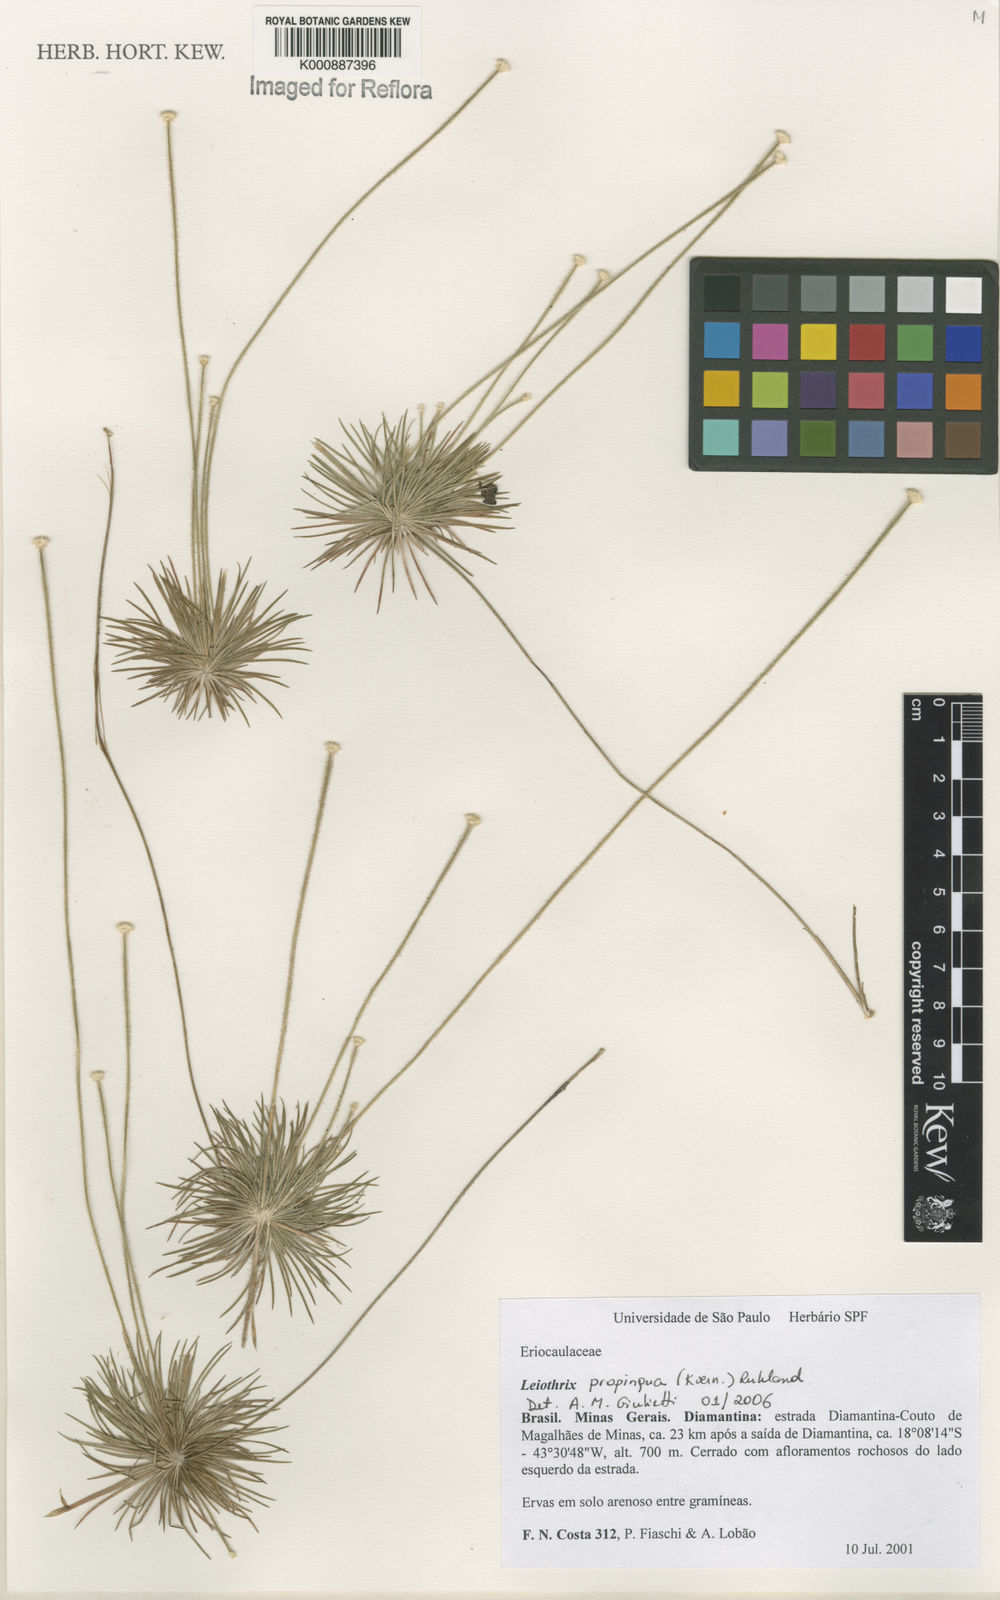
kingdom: Plantae
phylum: Tracheophyta
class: Liliopsida
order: Poales
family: Eriocaulaceae
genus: Leiothrix
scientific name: Leiothrix propinqua
